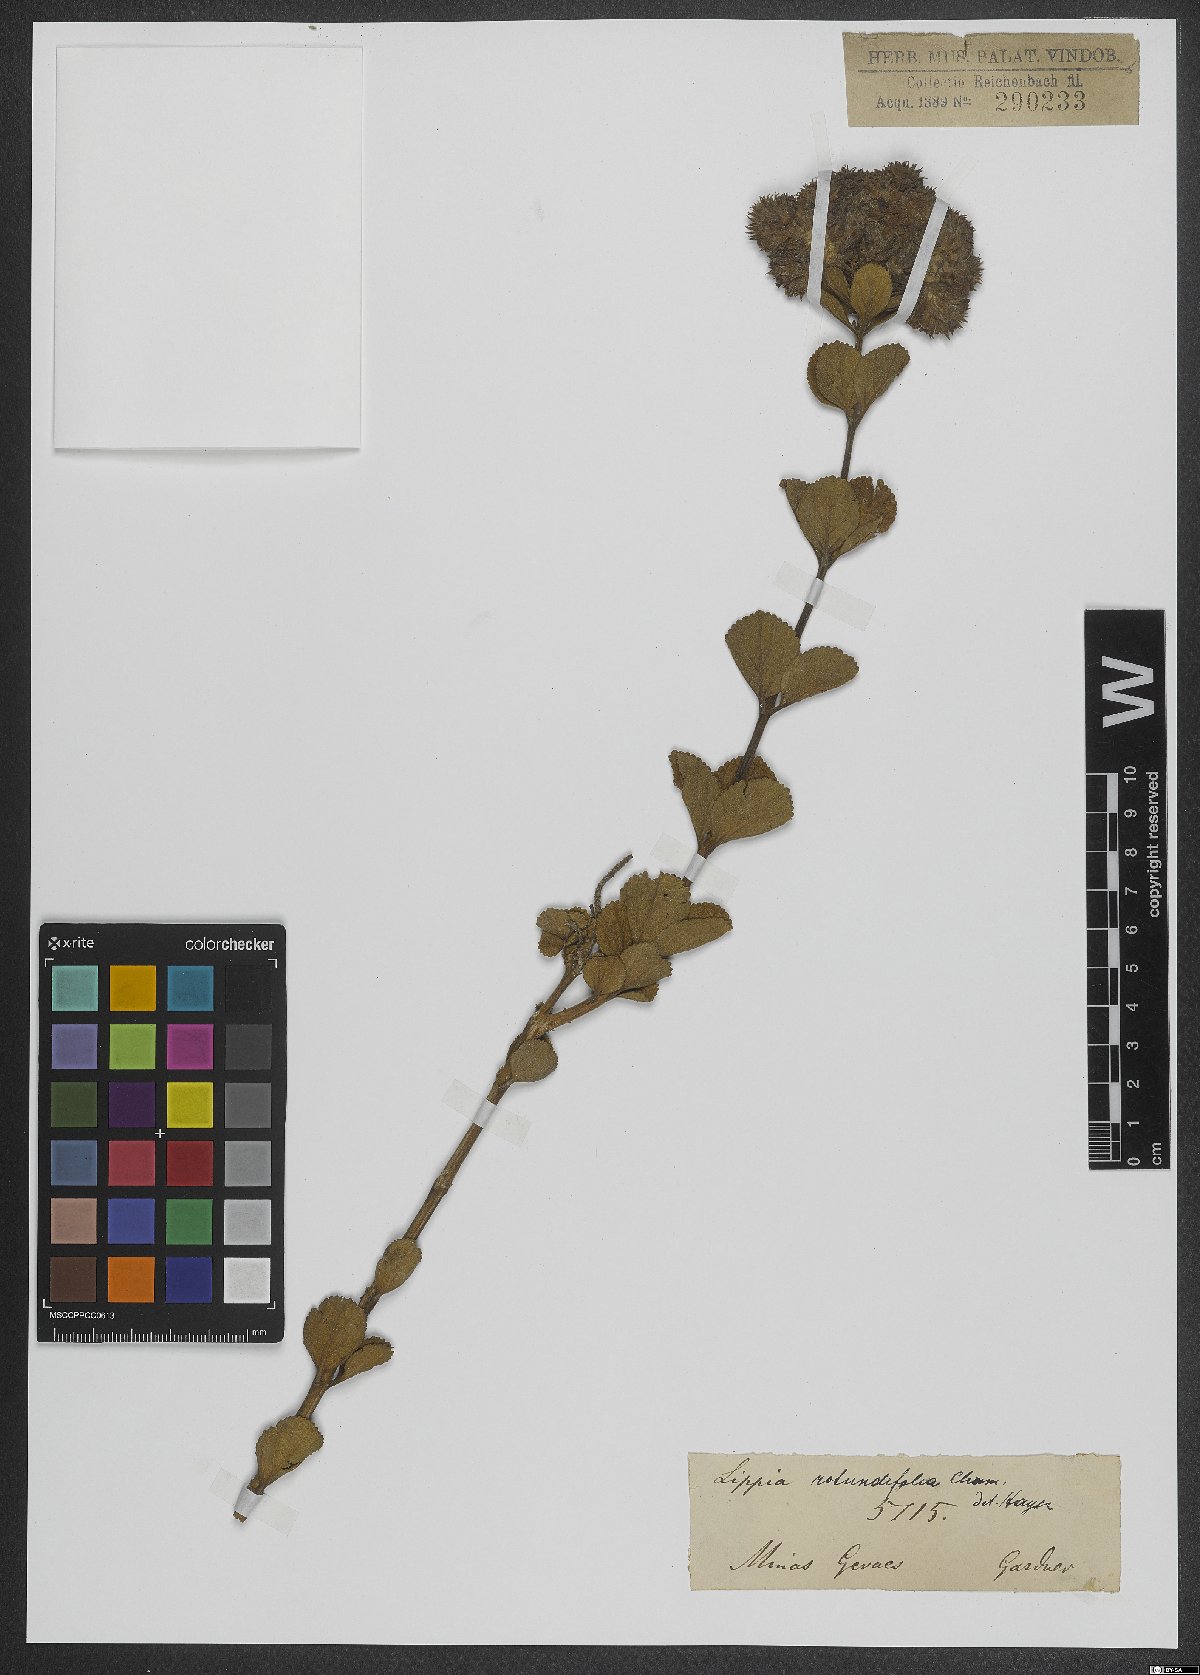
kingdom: Plantae
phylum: Tracheophyta
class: Magnoliopsida
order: Lamiales
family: Verbenaceae
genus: Lippia
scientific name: Lippia rotundifolia
